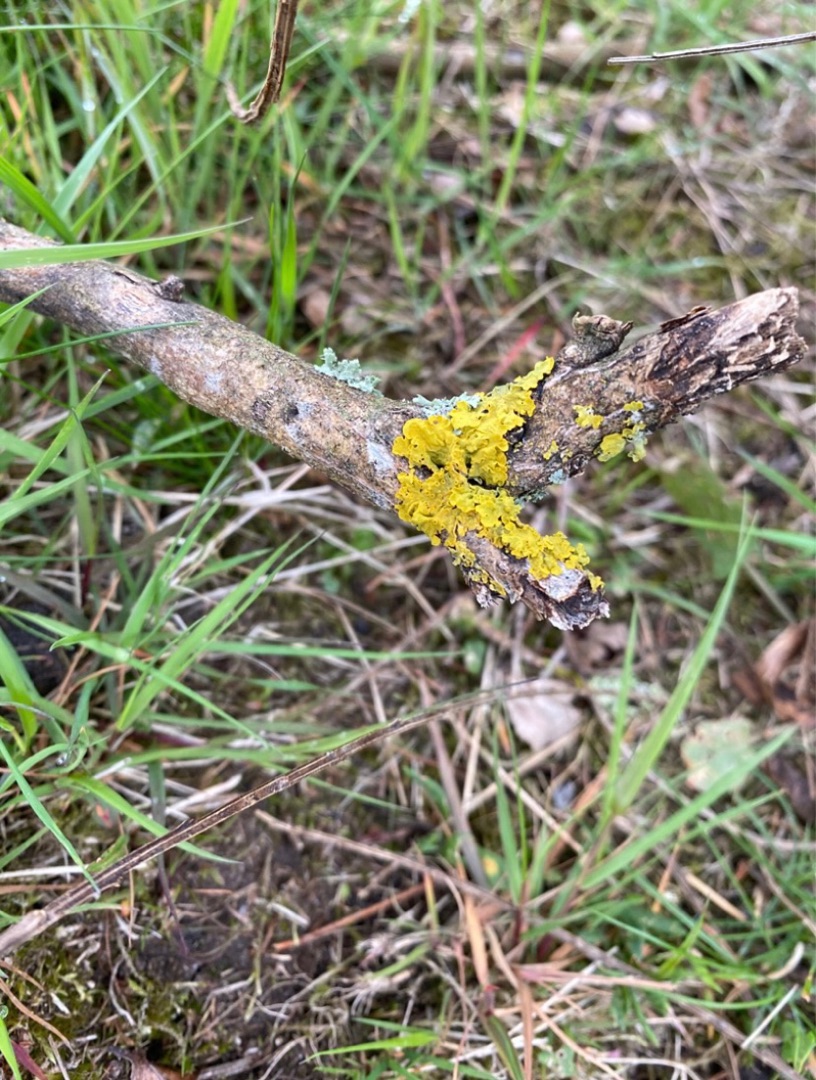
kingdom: Fungi
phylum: Ascomycota
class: Lecanoromycetes
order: Teloschistales
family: Teloschistaceae
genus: Xanthoria
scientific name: Xanthoria parietina
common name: Almindelig væggelav
